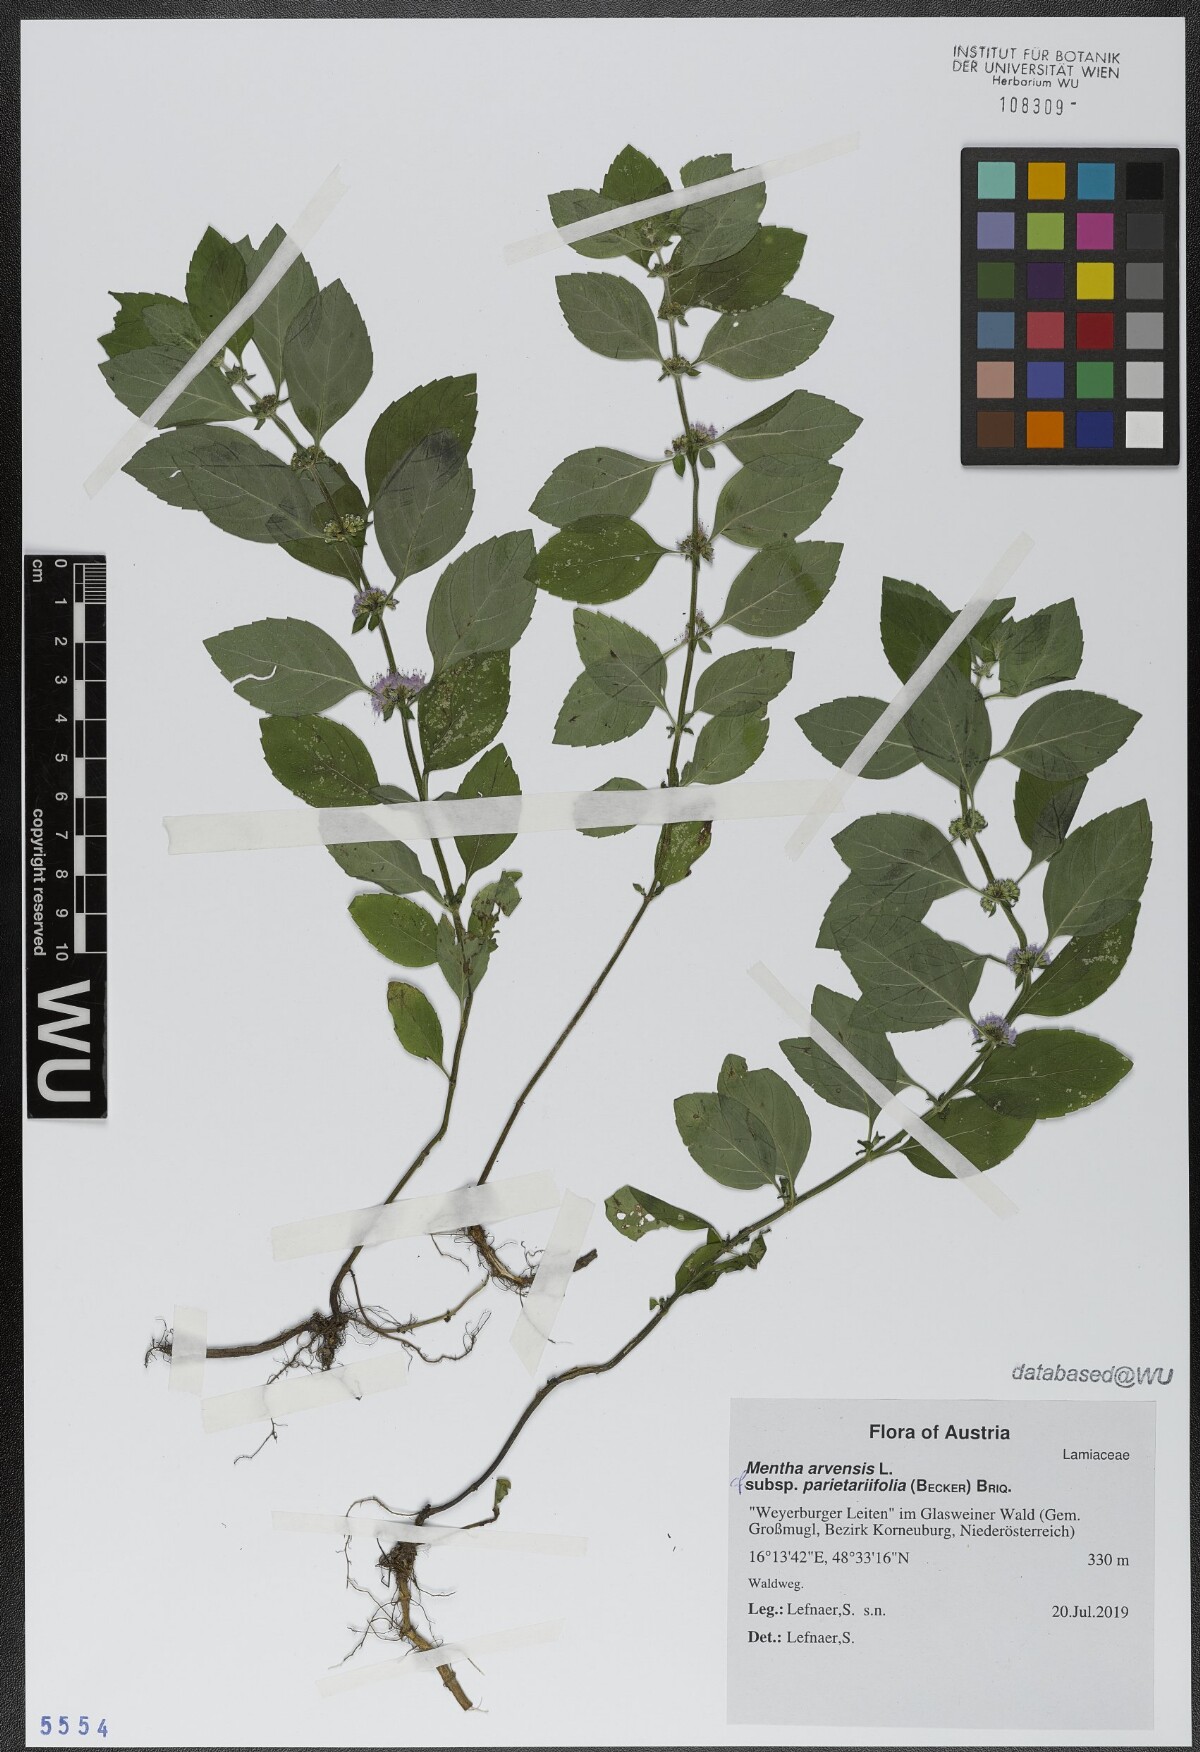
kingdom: Plantae
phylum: Tracheophyta
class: Magnoliopsida
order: Lamiales
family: Lamiaceae
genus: Mentha
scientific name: Mentha arvensis
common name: Corn mint
